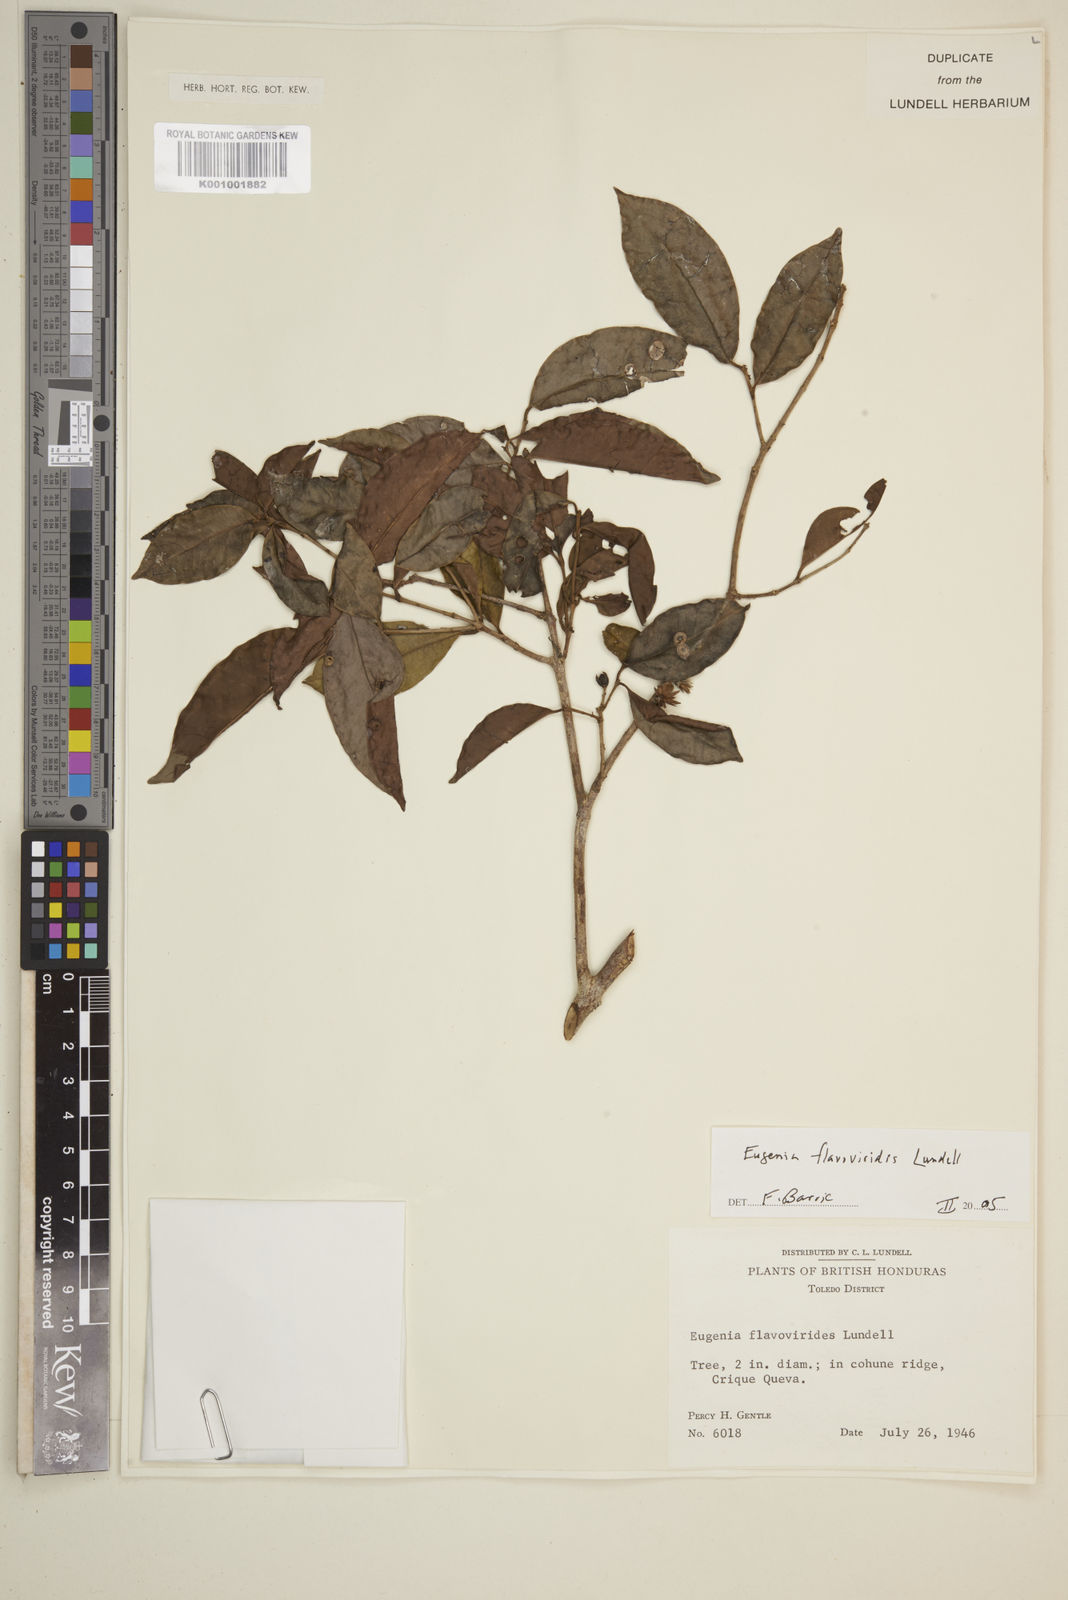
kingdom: Plantae
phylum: Tracheophyta
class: Magnoliopsida
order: Myrtales
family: Myrtaceae
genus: Eugenia
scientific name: Eugenia flavoviridis
